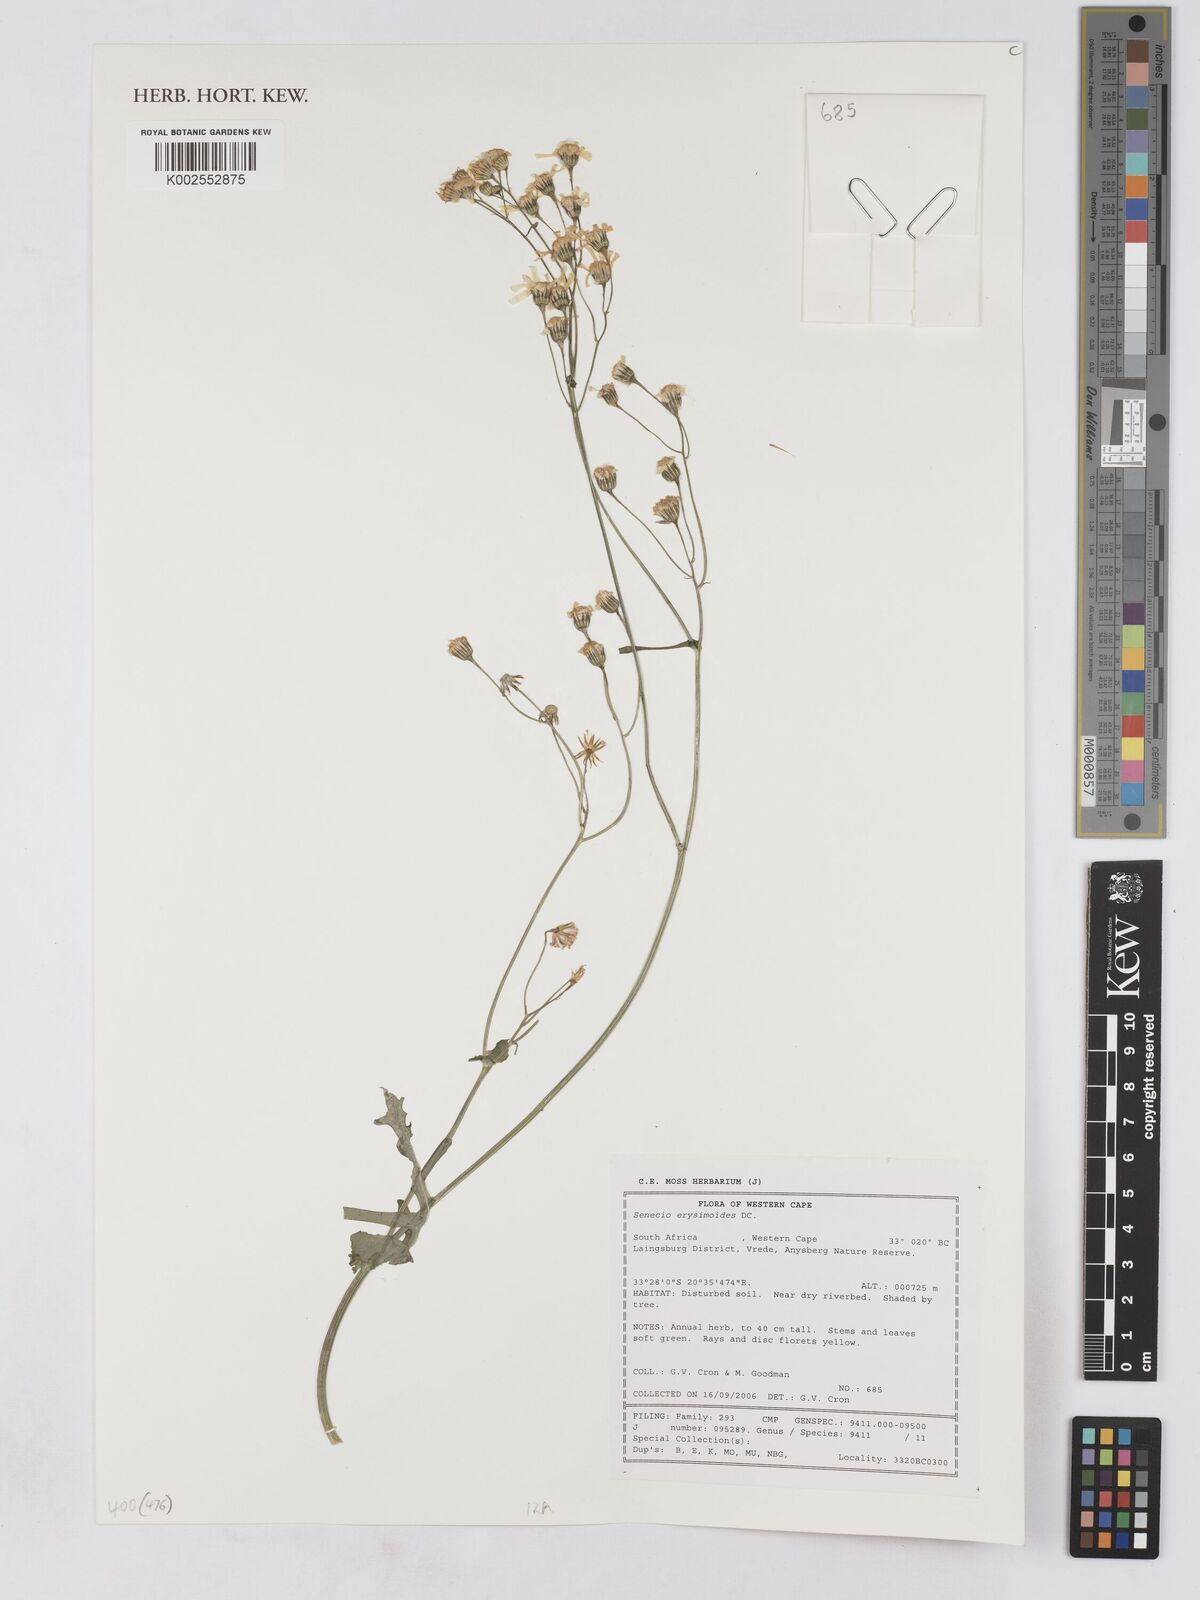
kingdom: Plantae
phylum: Tracheophyta
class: Magnoliopsida
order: Asterales
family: Asteraceae
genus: Senecio
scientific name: Senecio erysimoides
